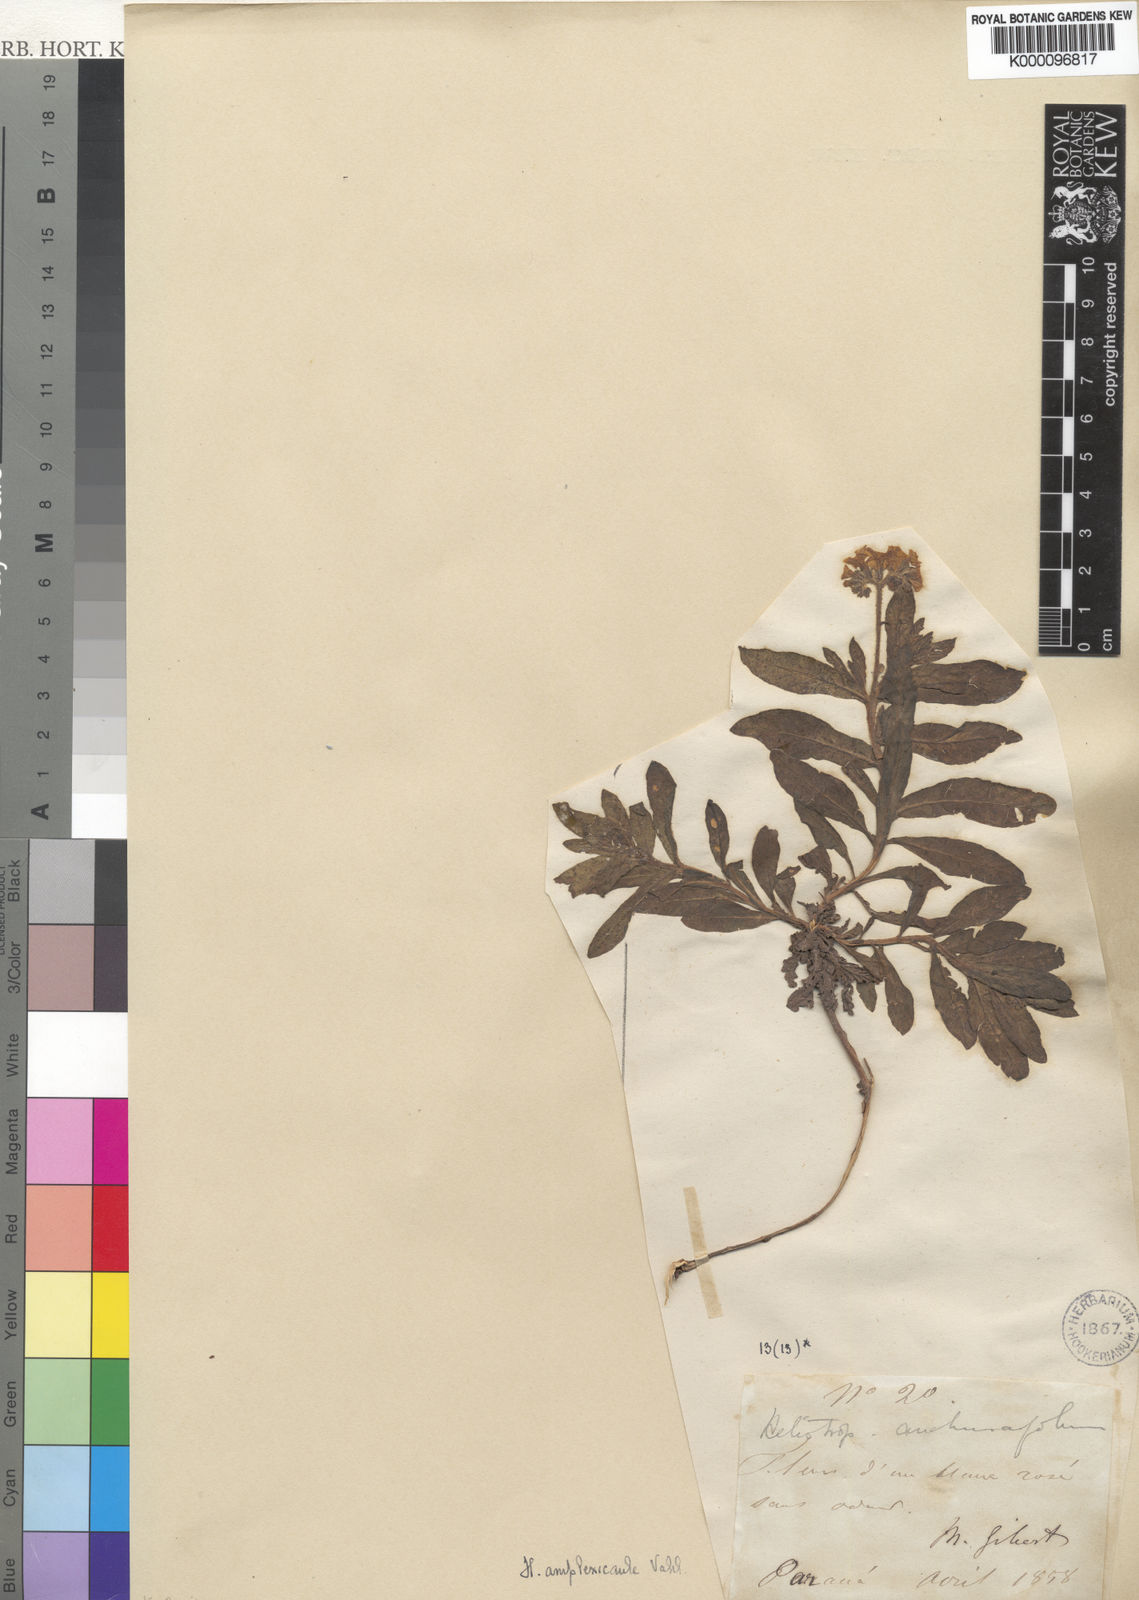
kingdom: Plantae
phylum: Tracheophyta
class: Magnoliopsida
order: Boraginales
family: Heliotropiaceae
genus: Heliotropium
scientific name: Heliotropium amplexicaule
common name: Clasping heliotrope
